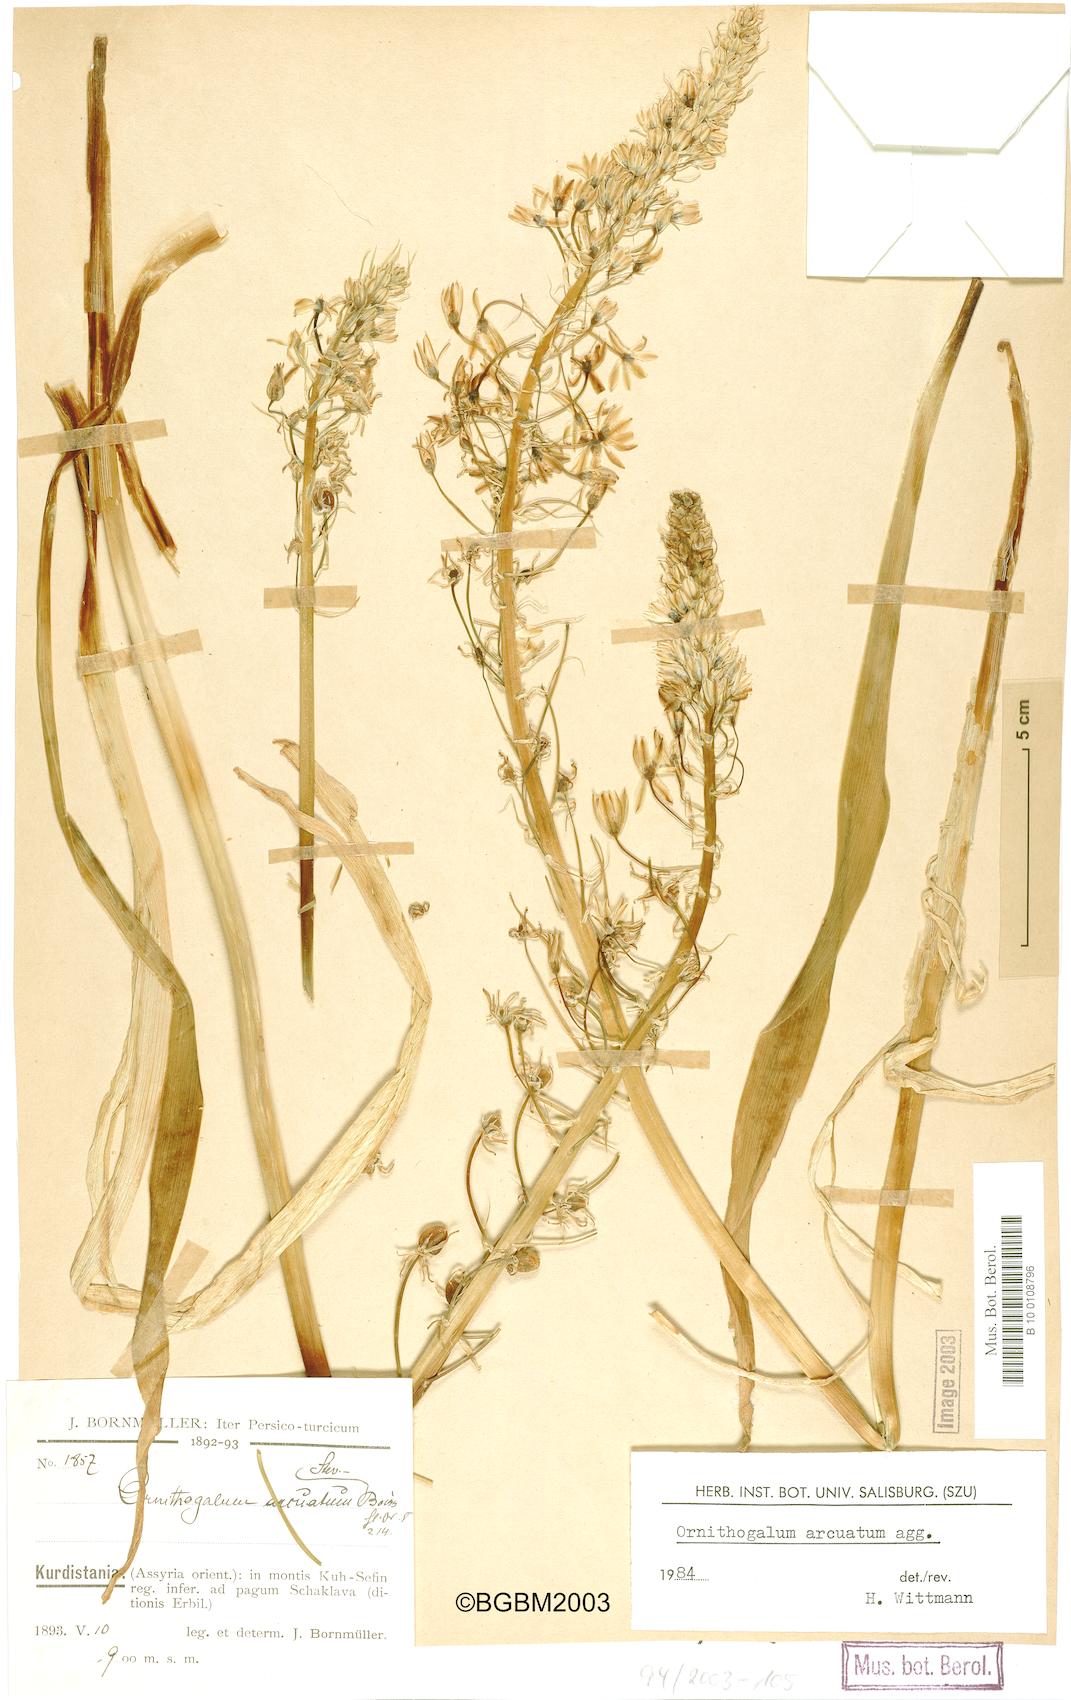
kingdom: Plantae
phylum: Tracheophyta
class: Liliopsida
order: Asparagales
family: Asparagaceae
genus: Ornithogalum
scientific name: Ornithogalum arcuatum
